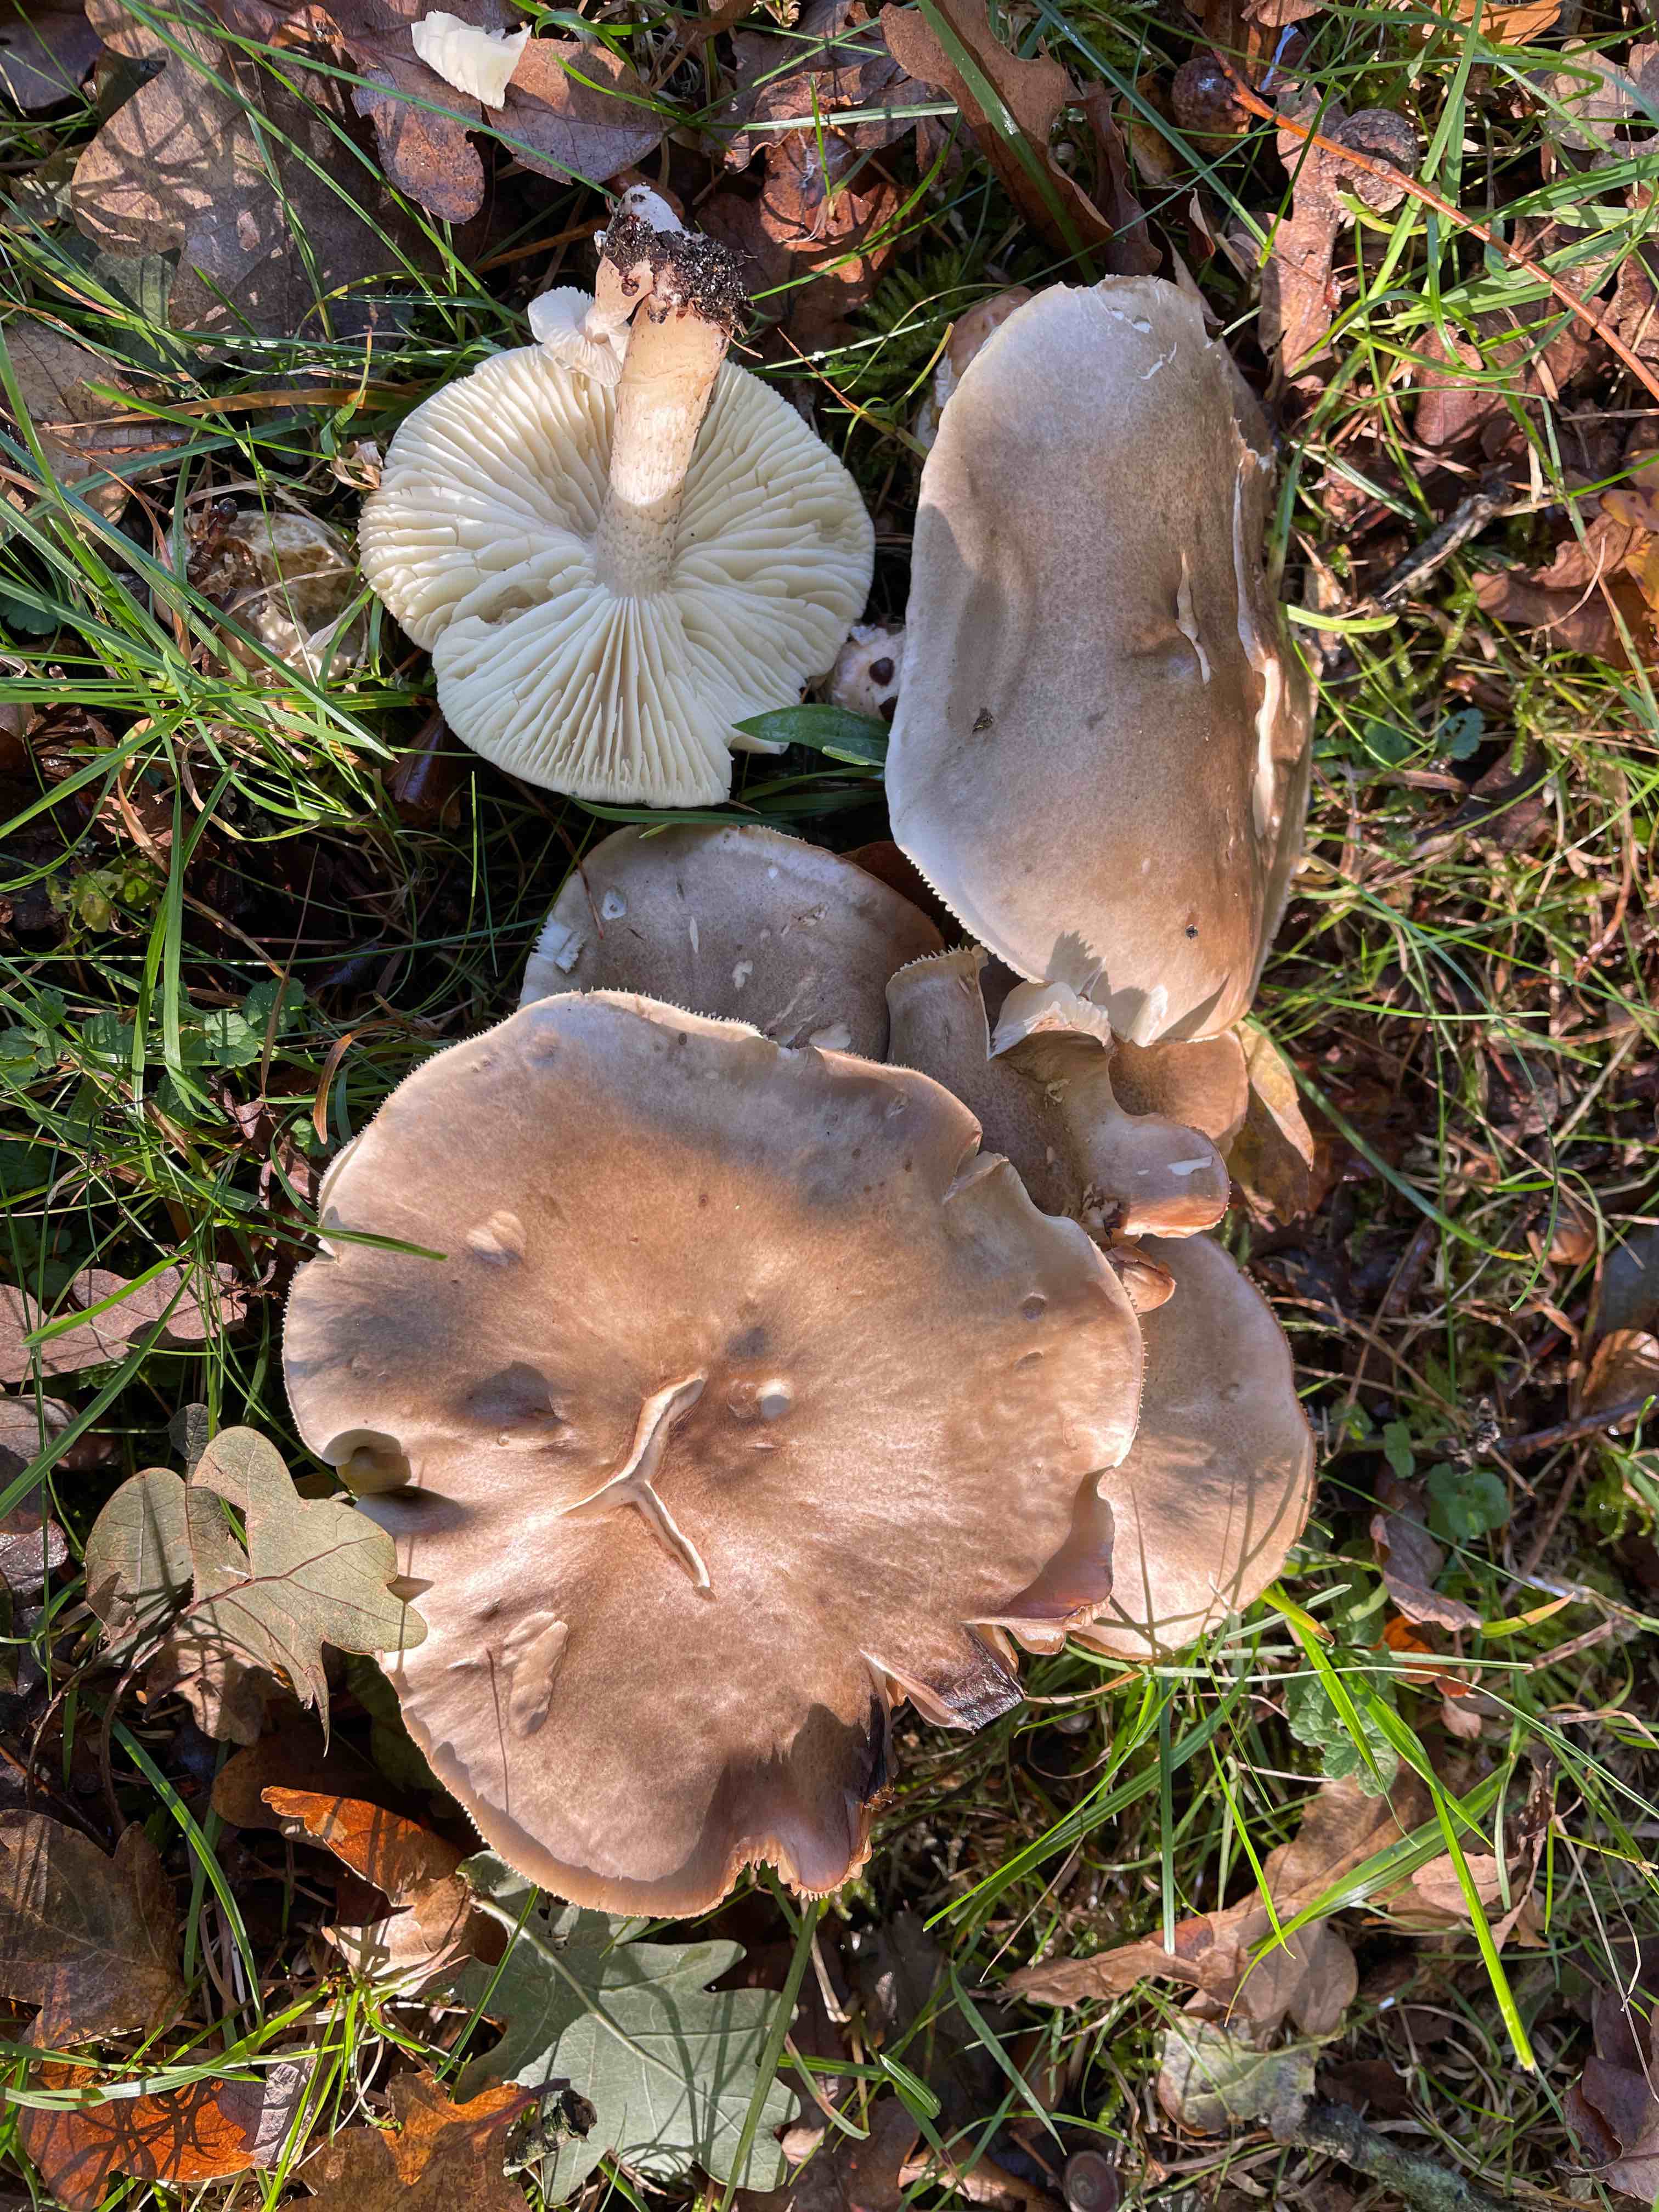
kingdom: Fungi
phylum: Basidiomycota
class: Agaricomycetes
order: Agaricales
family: Tricholomataceae
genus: Tricholoma
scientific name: Tricholoma saponaceum
